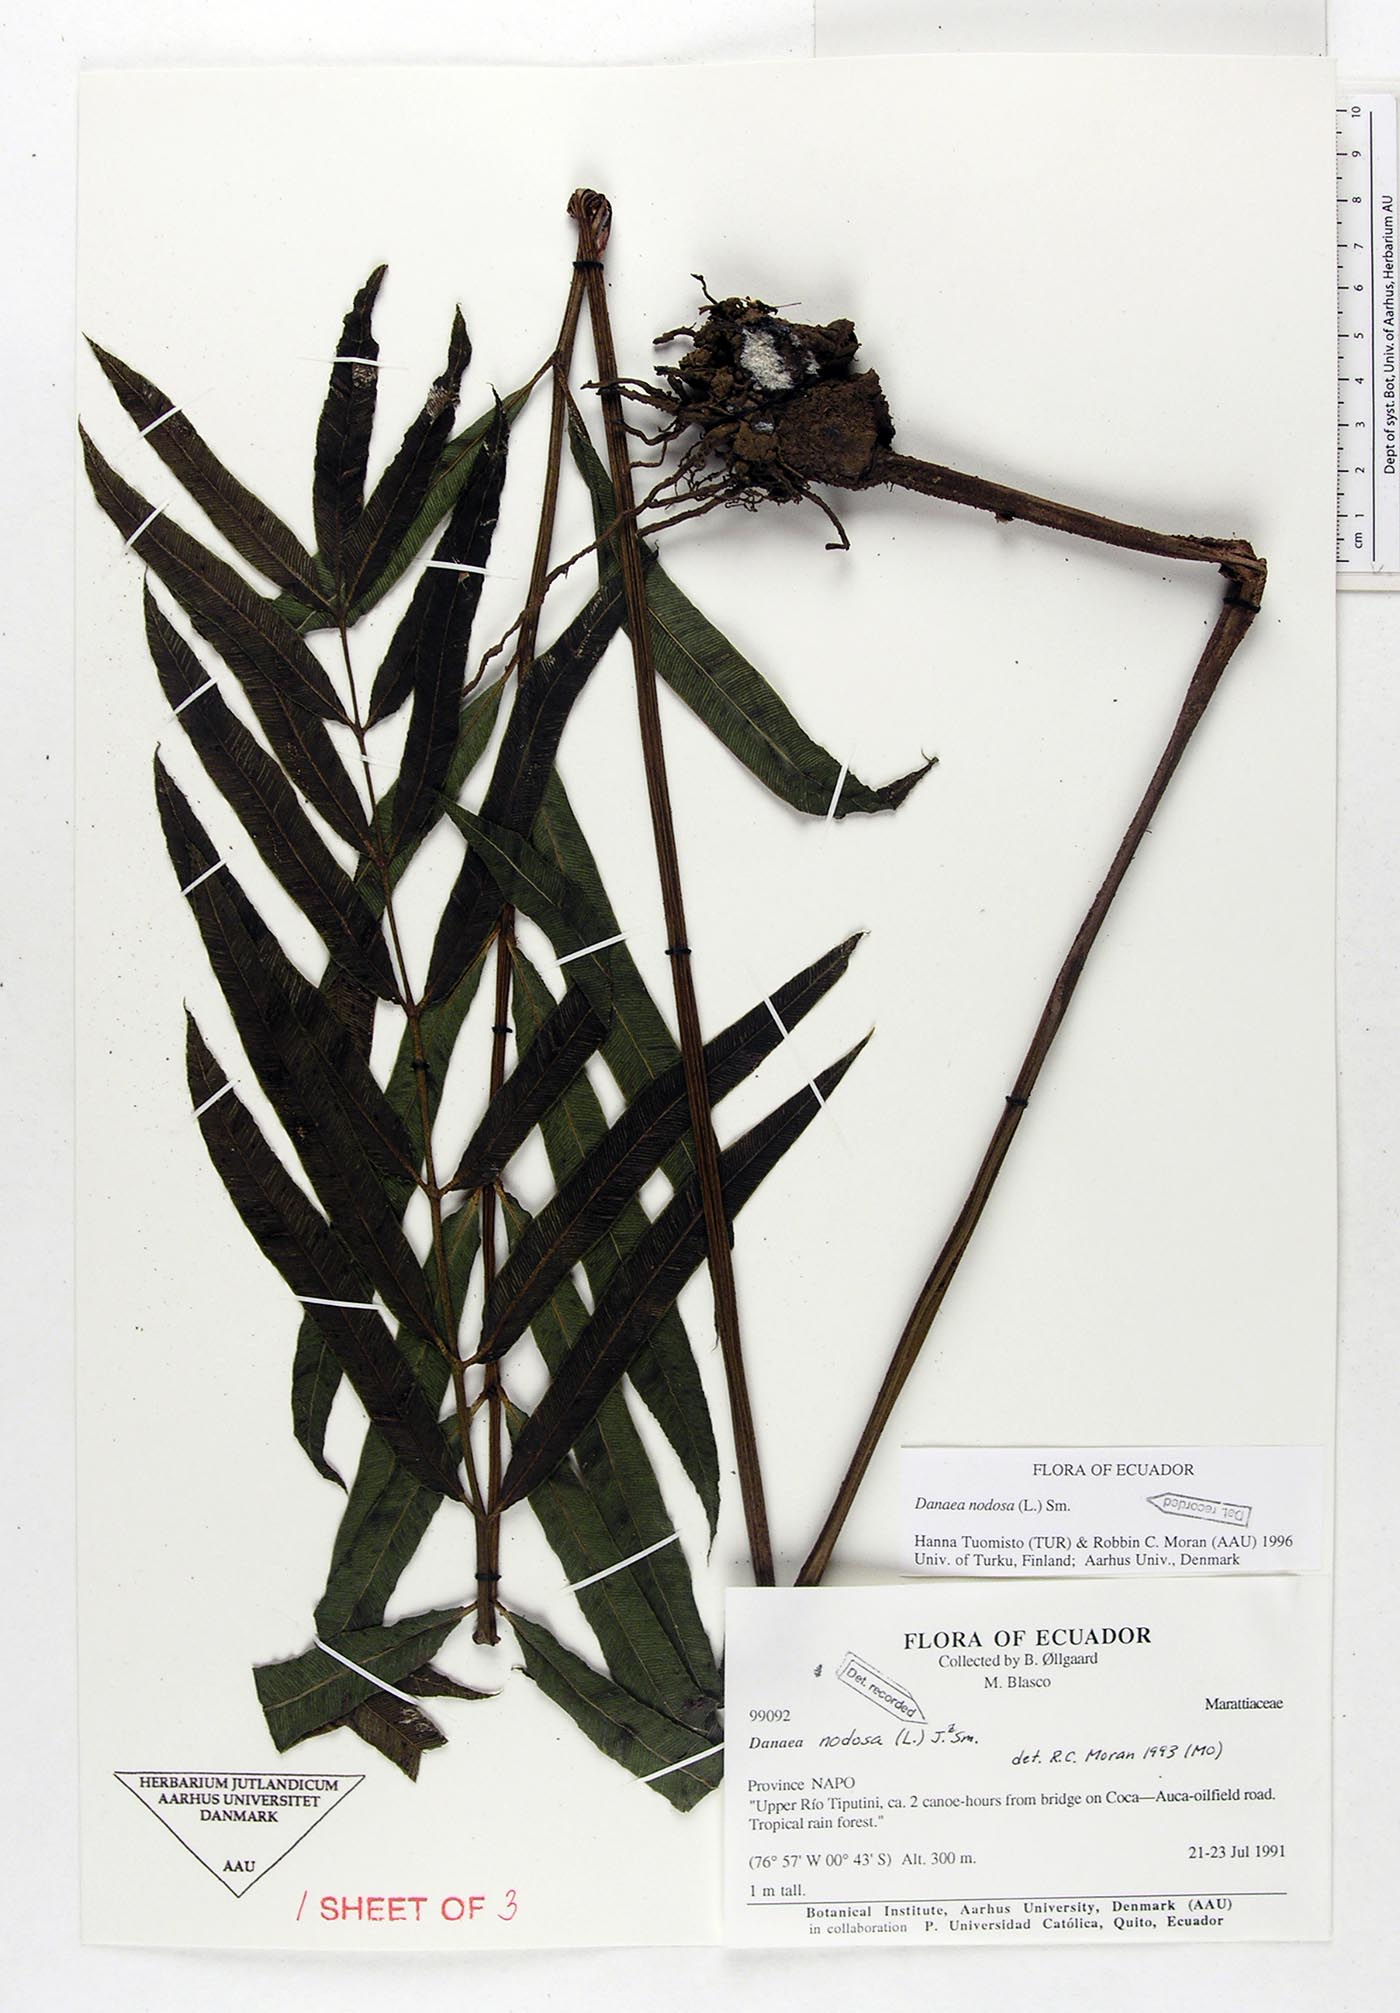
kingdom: Plantae
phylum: Tracheophyta
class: Polypodiopsida
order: Marattiales
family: Marattiaceae
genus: Danaea
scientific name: Danaea nodosa
